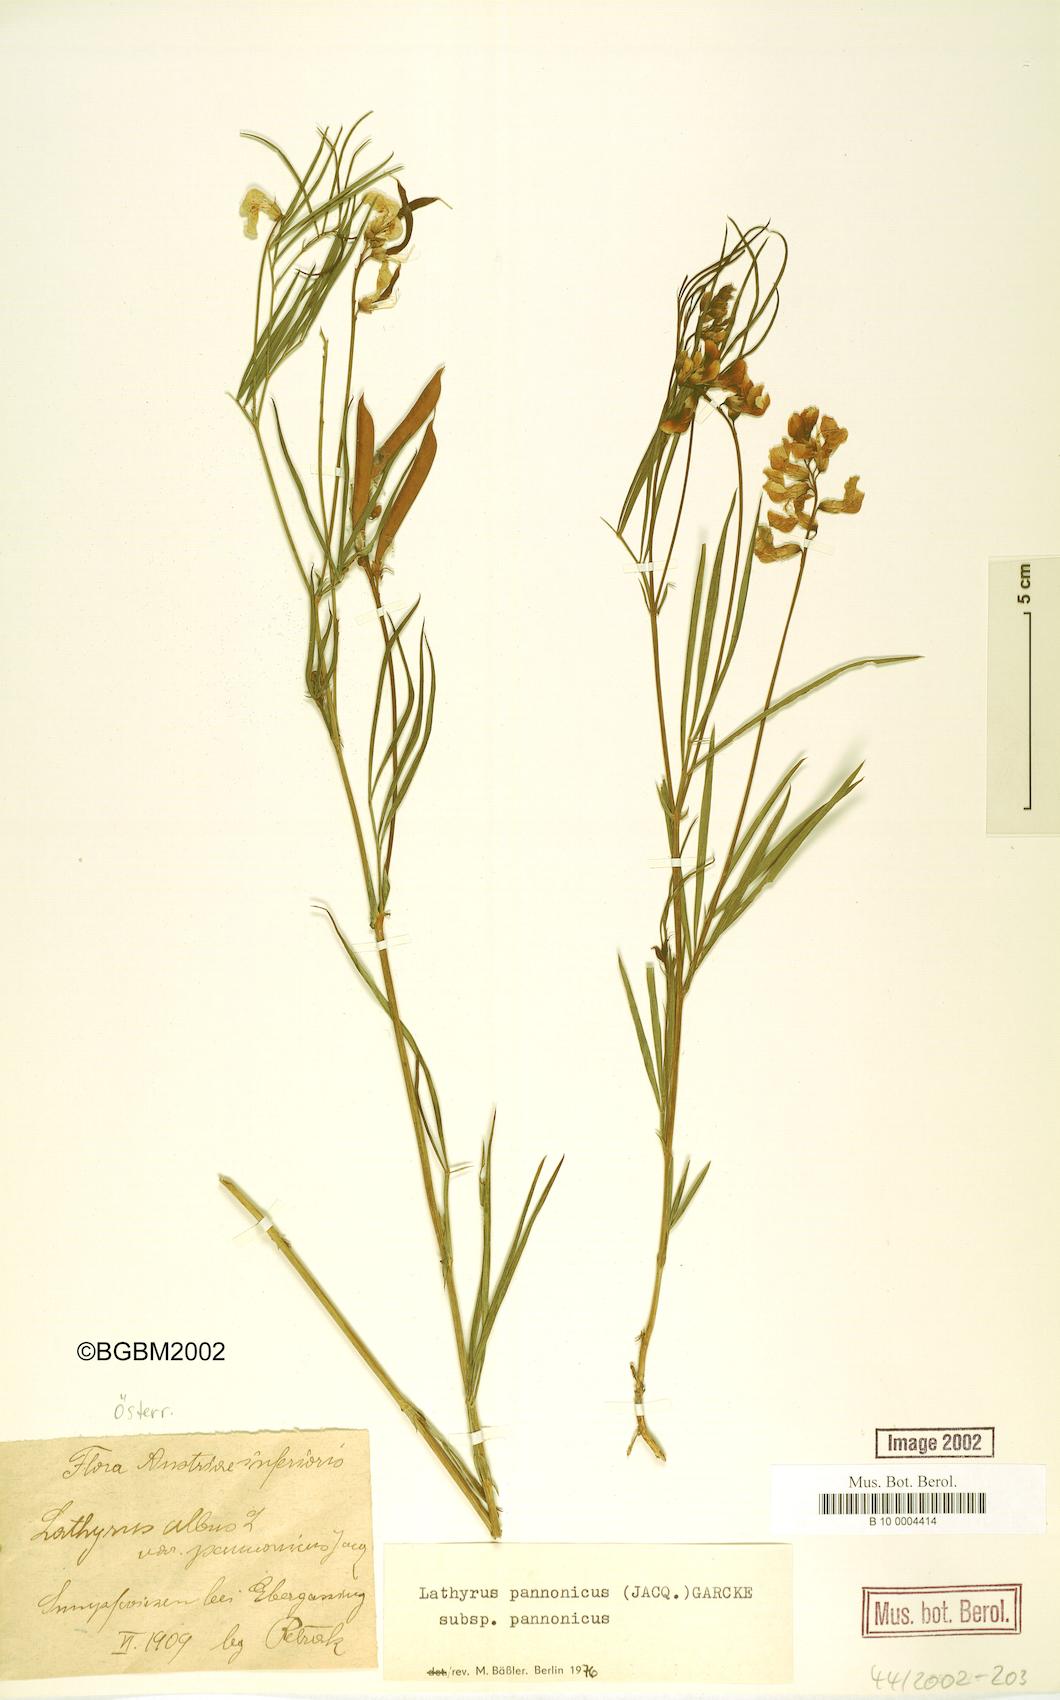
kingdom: Plantae
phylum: Tracheophyta
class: Magnoliopsida
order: Fabales
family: Fabaceae
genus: Lathyrus
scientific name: Lathyrus pannonicus
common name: Pea
